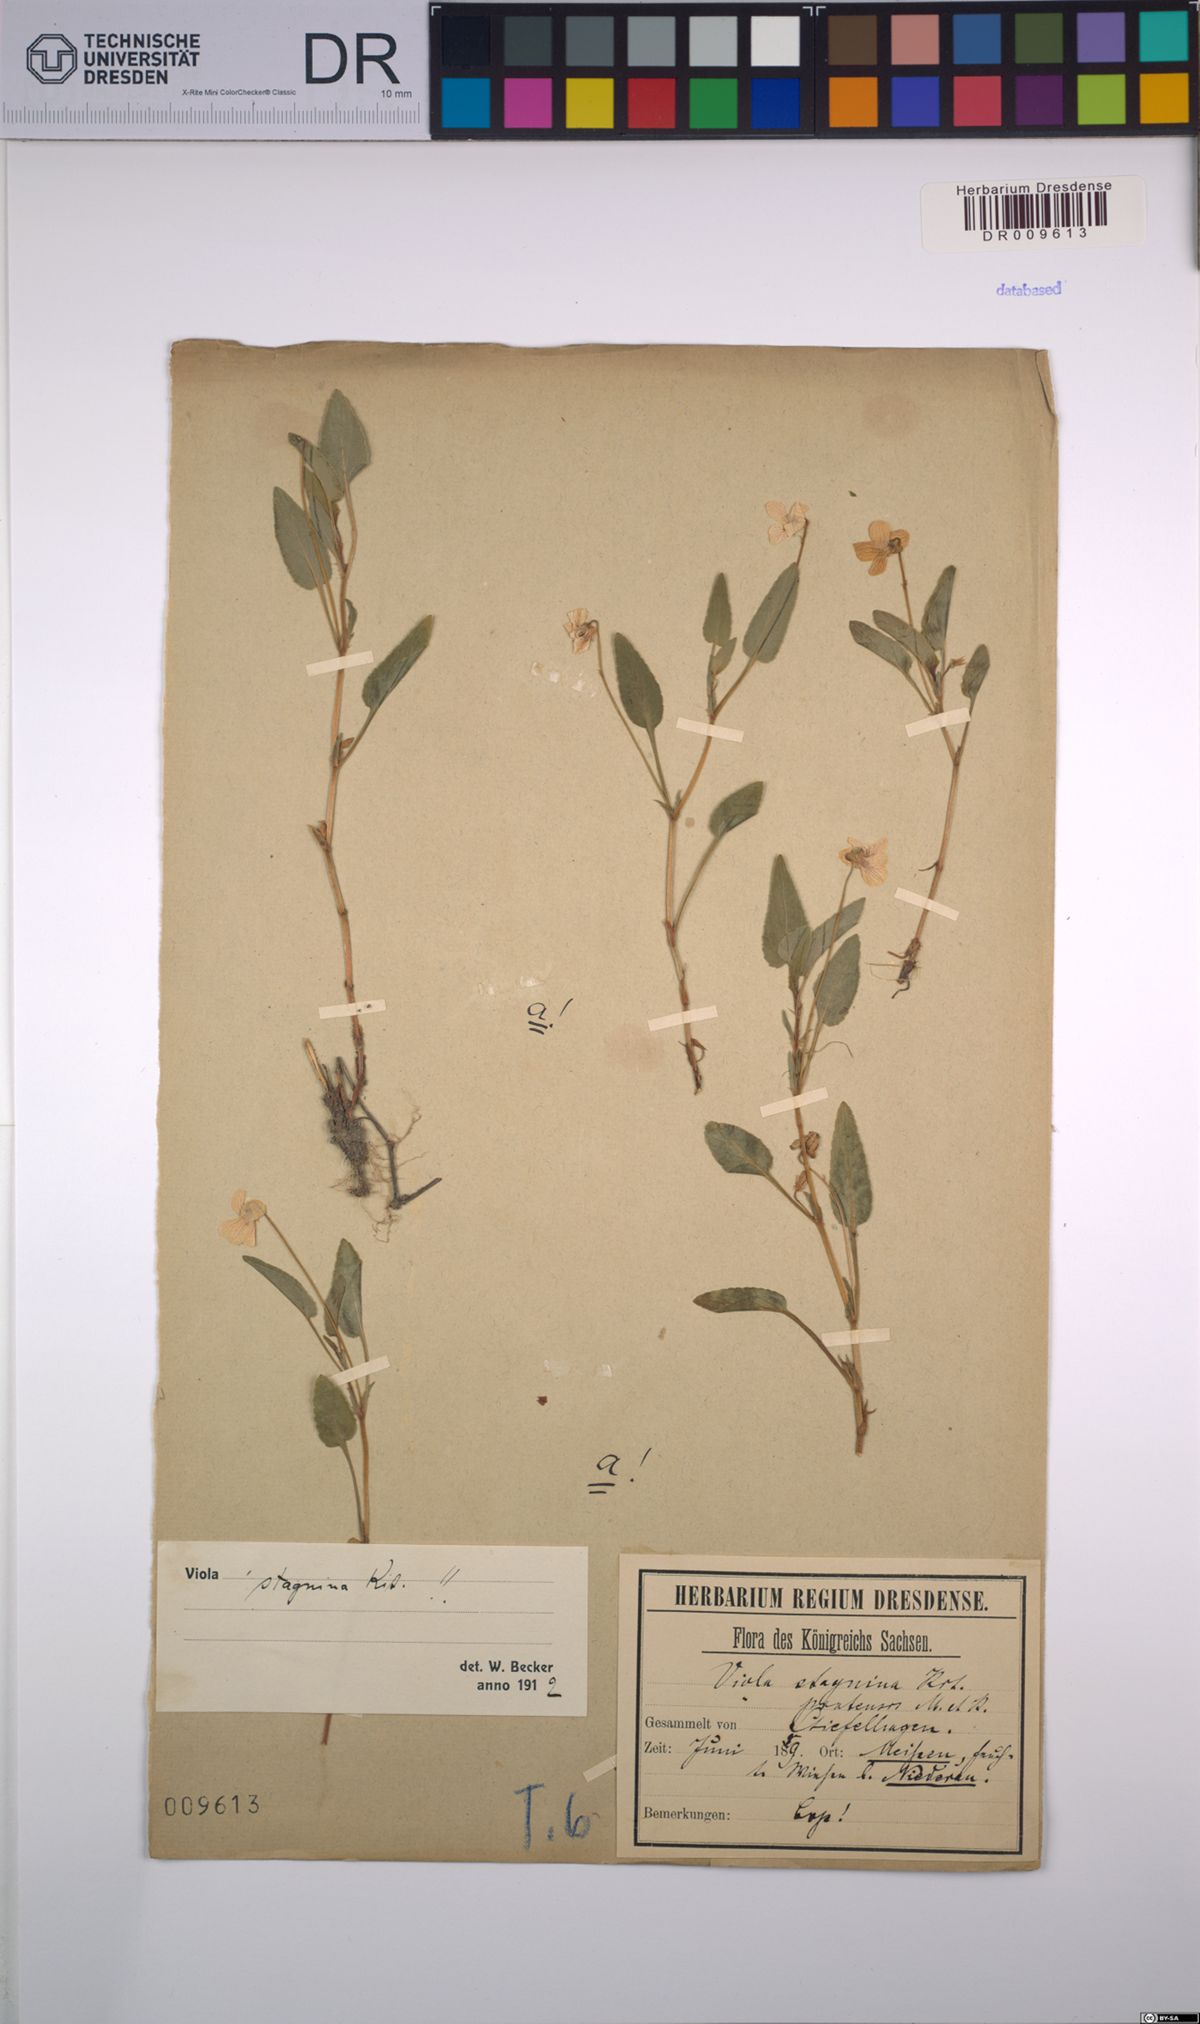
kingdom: Plantae
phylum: Tracheophyta
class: Magnoliopsida
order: Malpighiales
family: Violaceae
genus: Viola
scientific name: Viola stagnina
